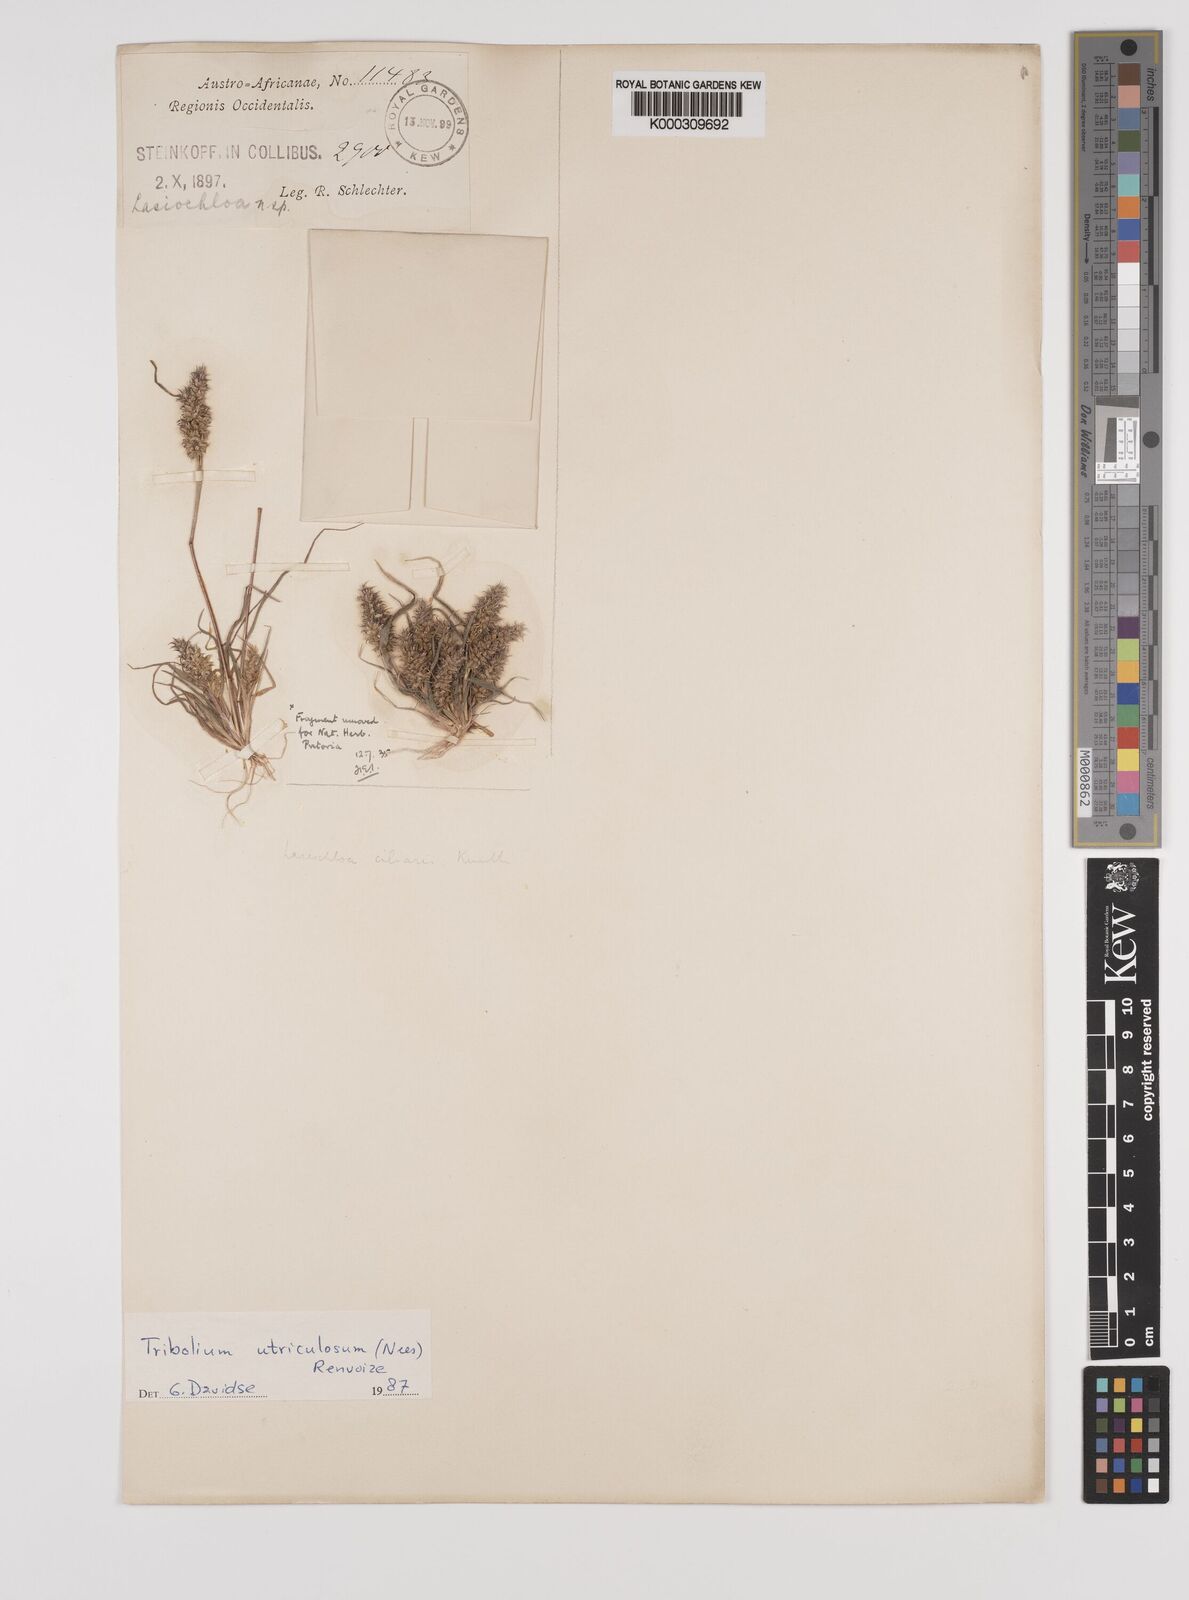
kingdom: Plantae
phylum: Tracheophyta
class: Liliopsida
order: Poales
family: Poaceae
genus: Tribolium
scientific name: Tribolium utriculosum
